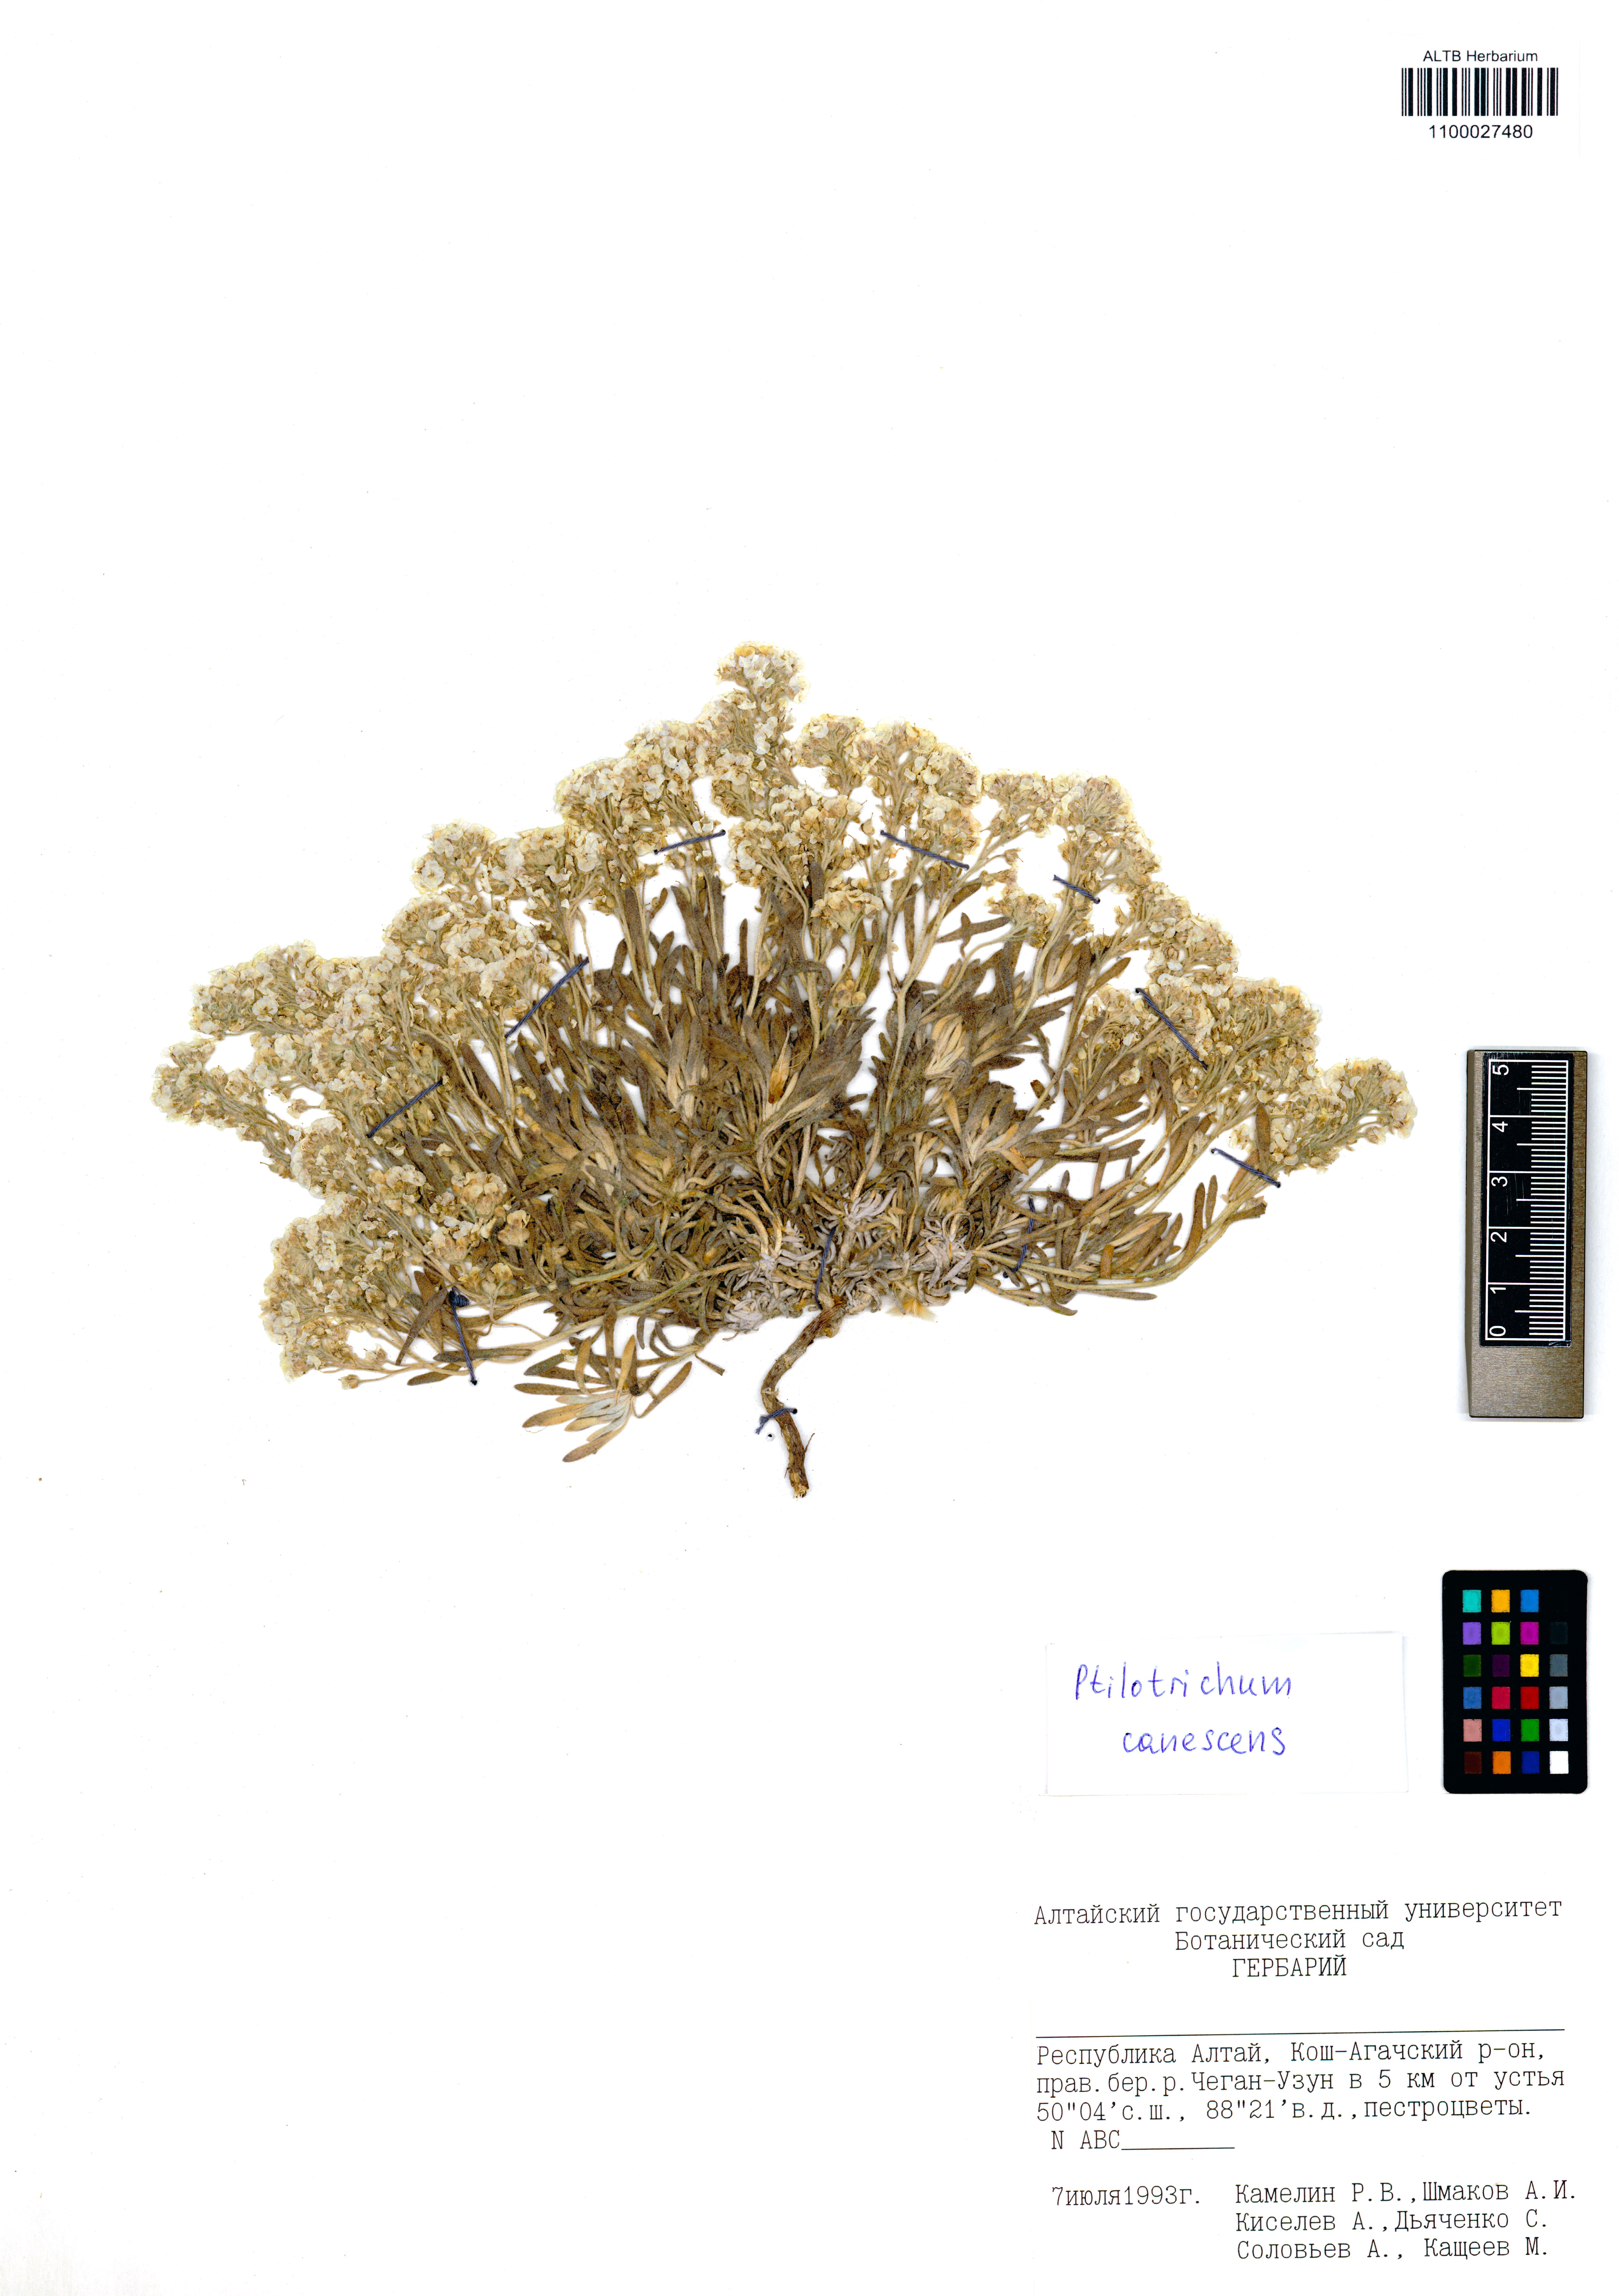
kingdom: Plantae
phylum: Tracheophyta
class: Magnoliopsida
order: Brassicales
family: Brassicaceae
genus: Stevenia
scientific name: Stevenia canescens
